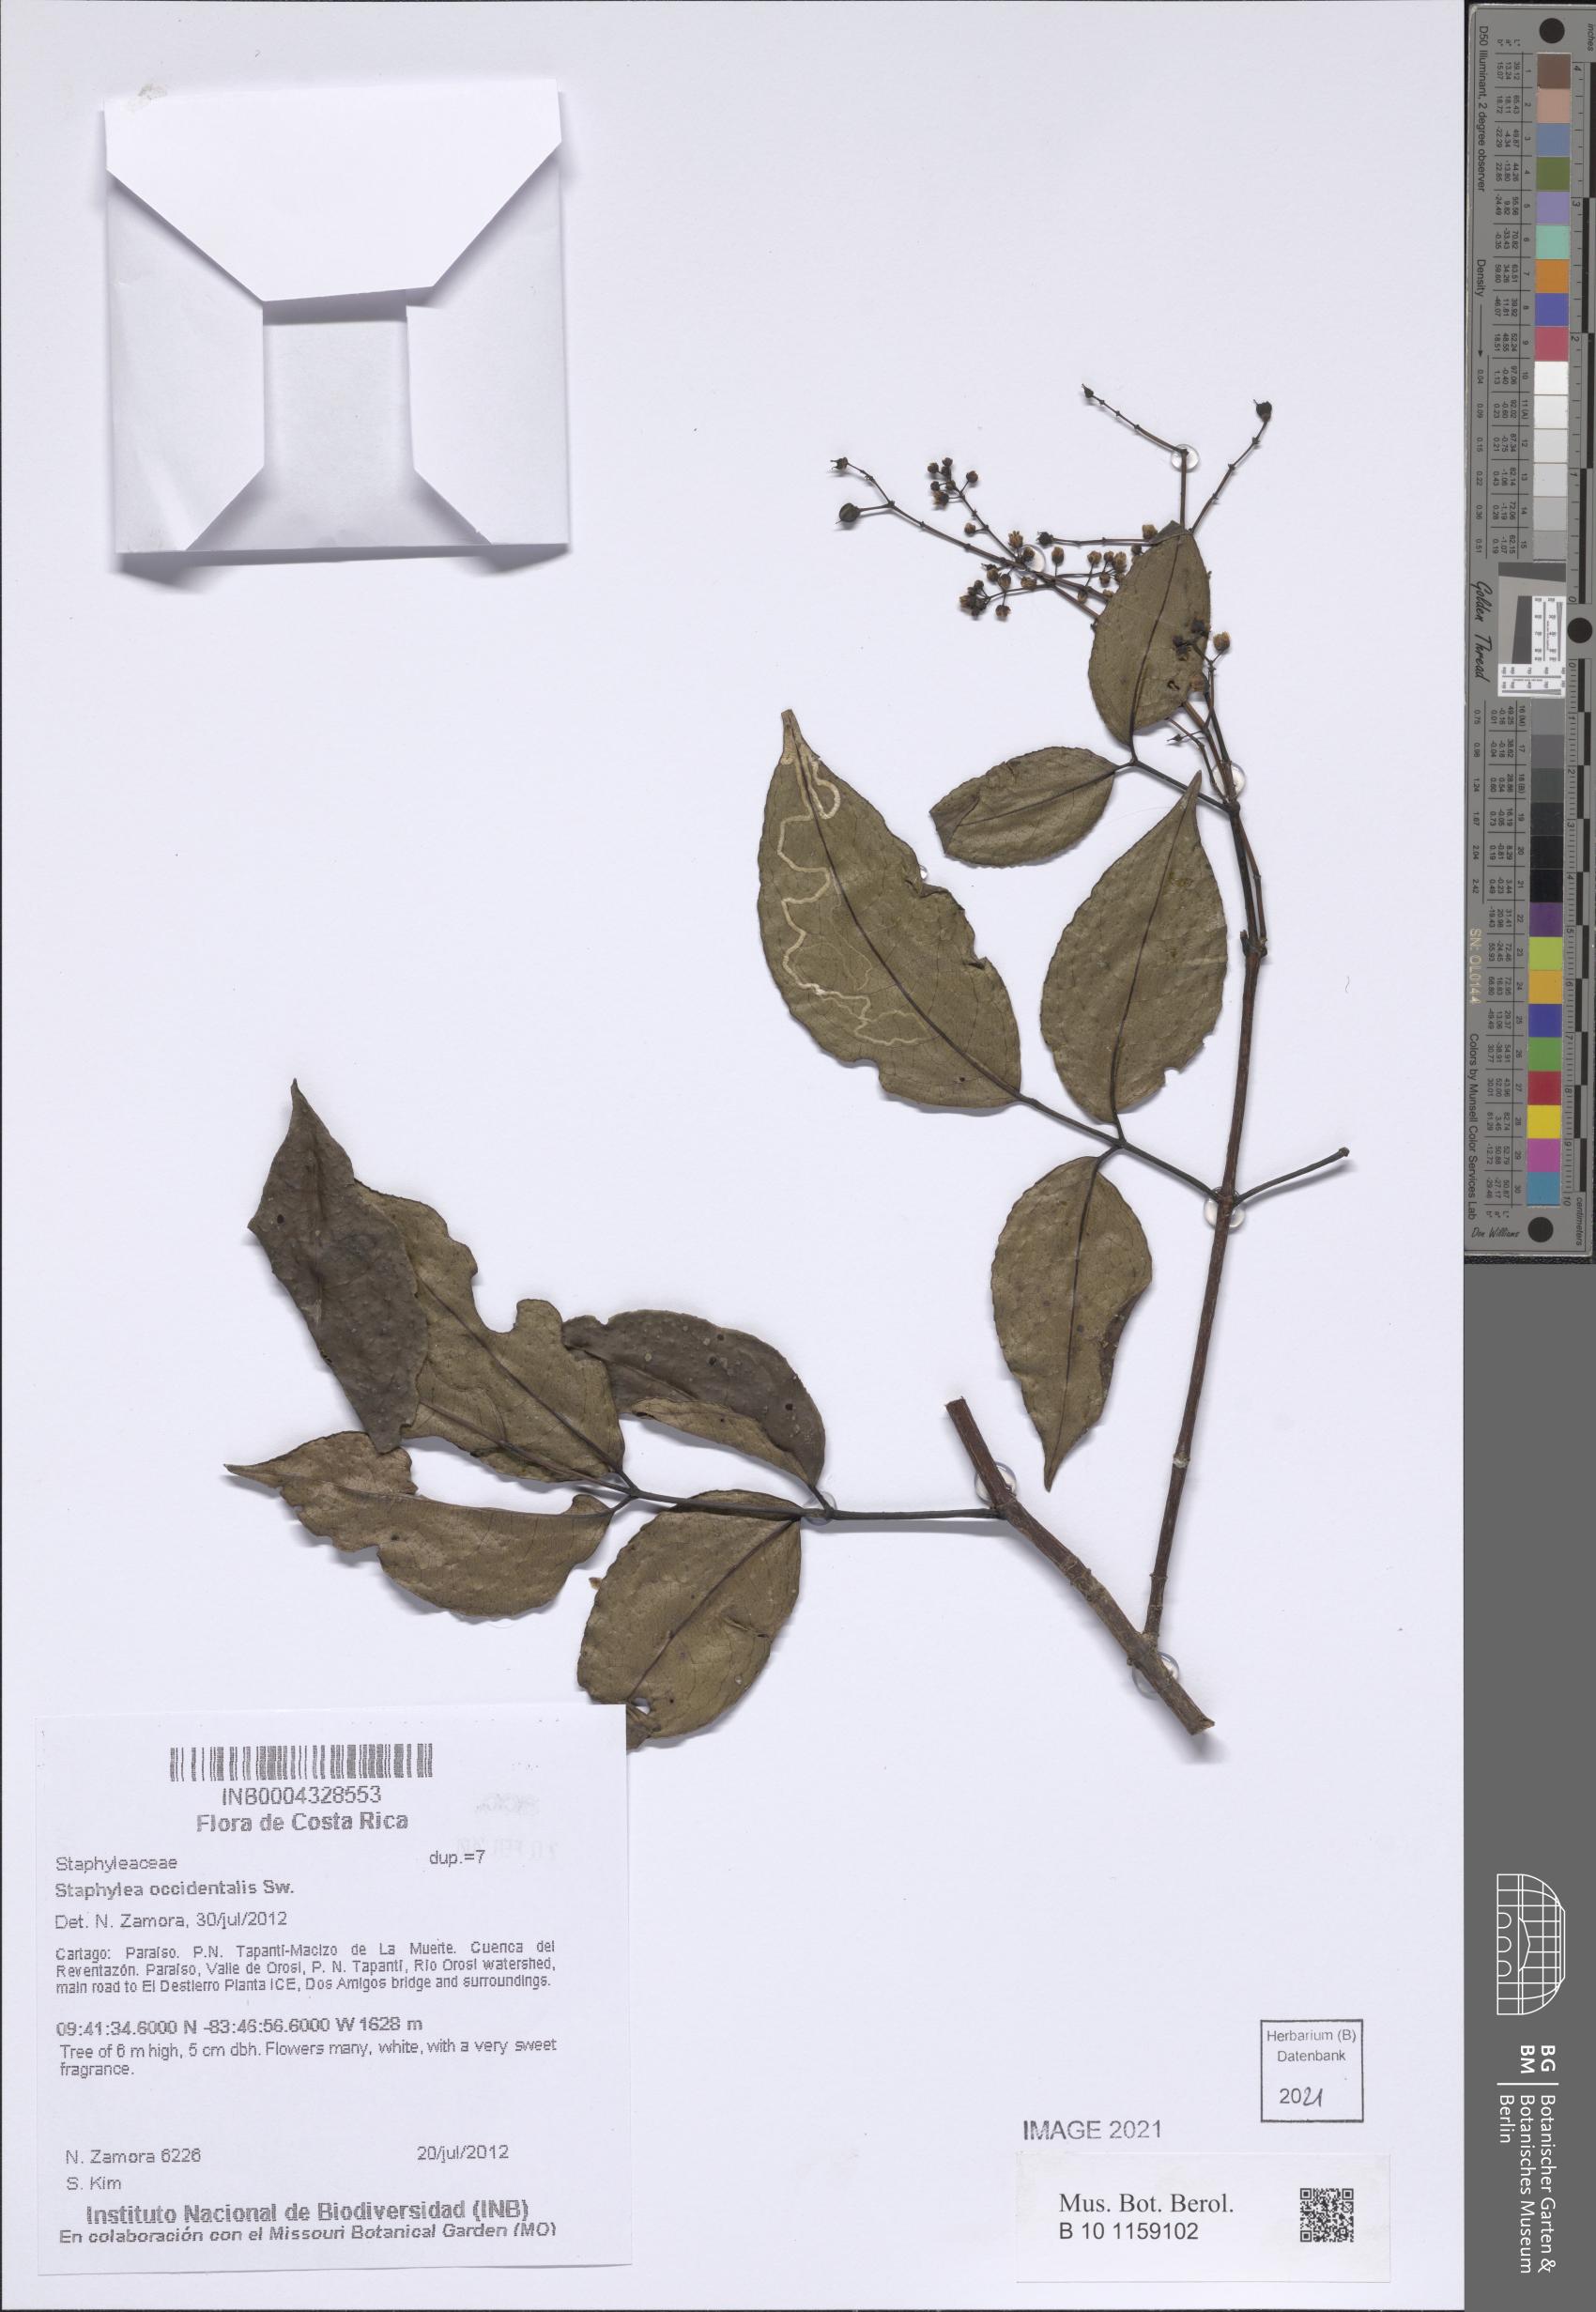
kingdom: Plantae
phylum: Tracheophyta
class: Magnoliopsida
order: Crossosomatales
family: Staphyleaceae
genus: Turpinia
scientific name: Turpinia occidentalis
